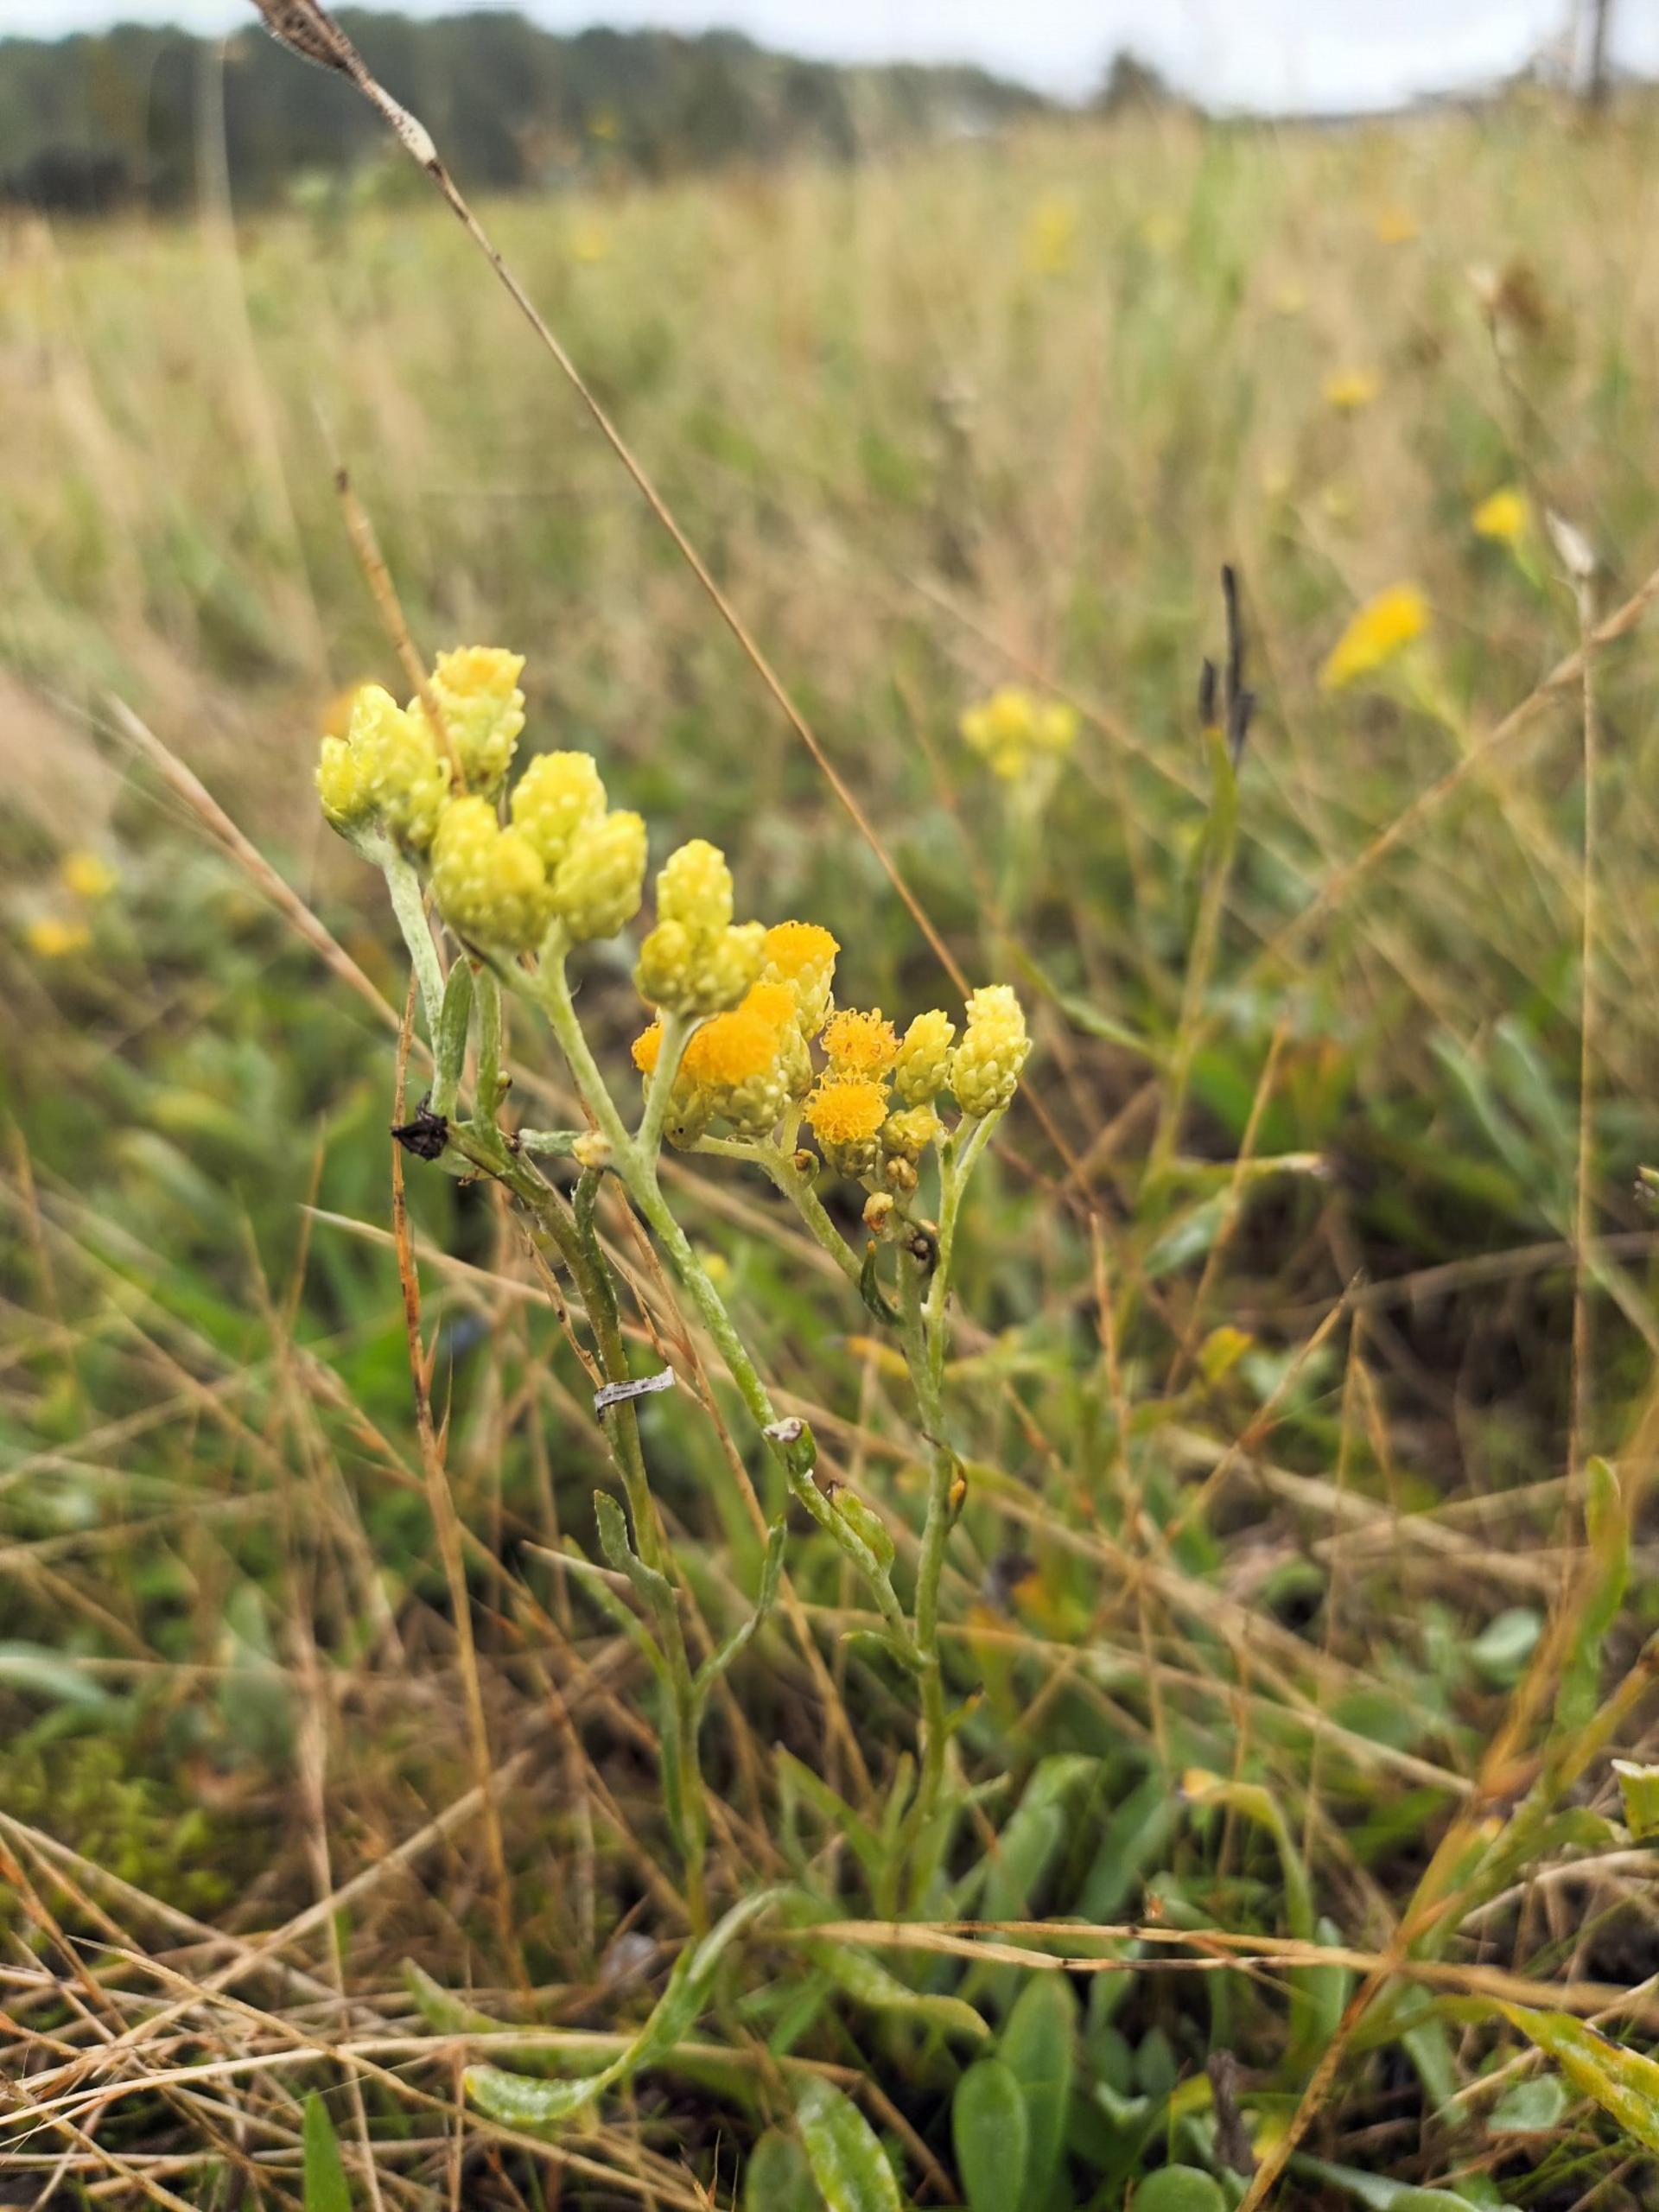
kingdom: Plantae
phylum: Tracheophyta
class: Magnoliopsida
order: Asterales
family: Asteraceae
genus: Helichrysum
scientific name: Helichrysum arenarium
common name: Gul evighedsblomst
